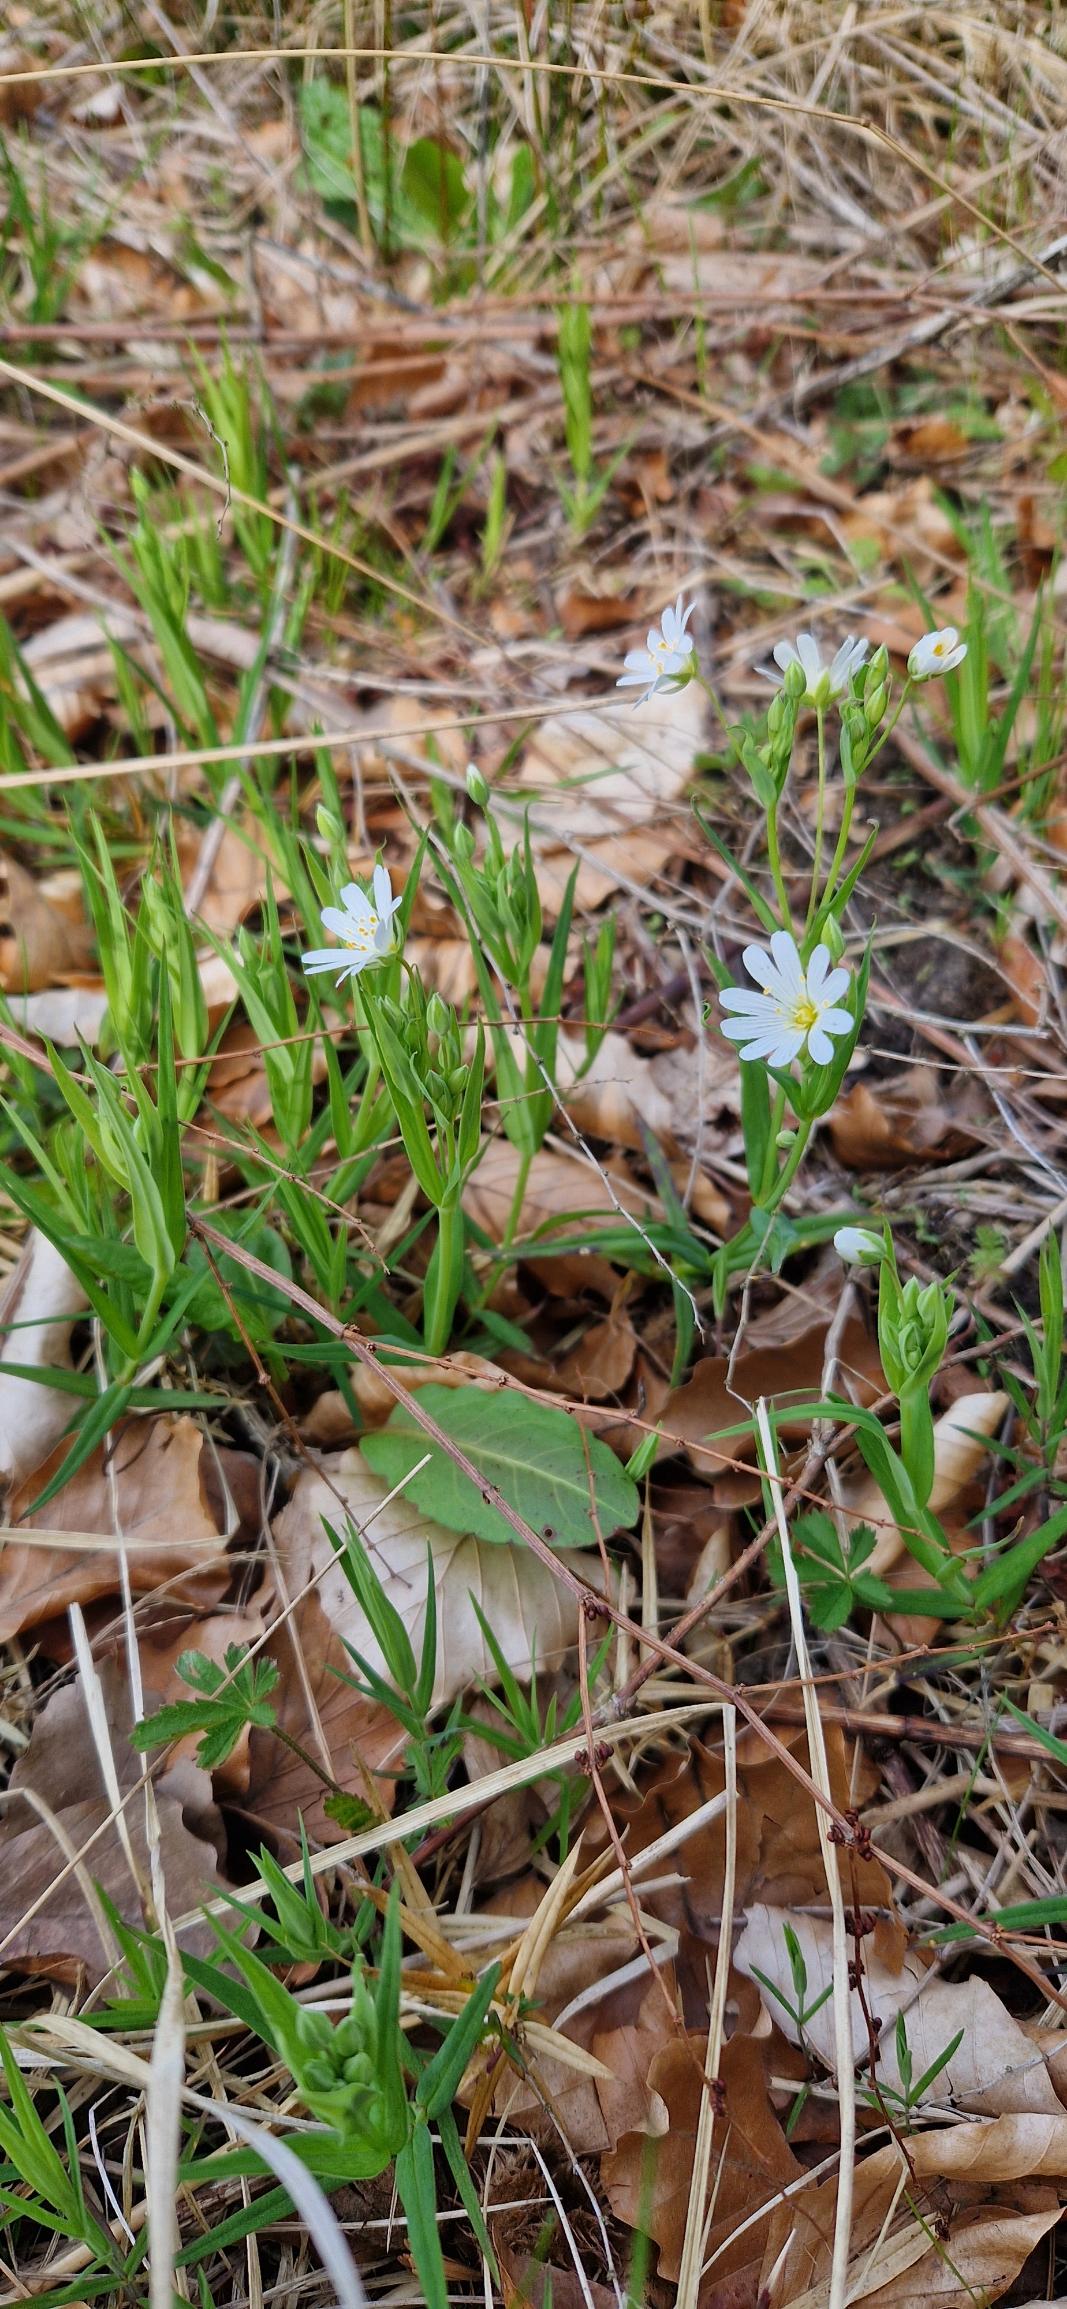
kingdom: Plantae
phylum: Tracheophyta
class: Magnoliopsida
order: Caryophyllales
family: Caryophyllaceae
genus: Rabelera
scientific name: Rabelera holostea
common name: Stor fladstjerne
